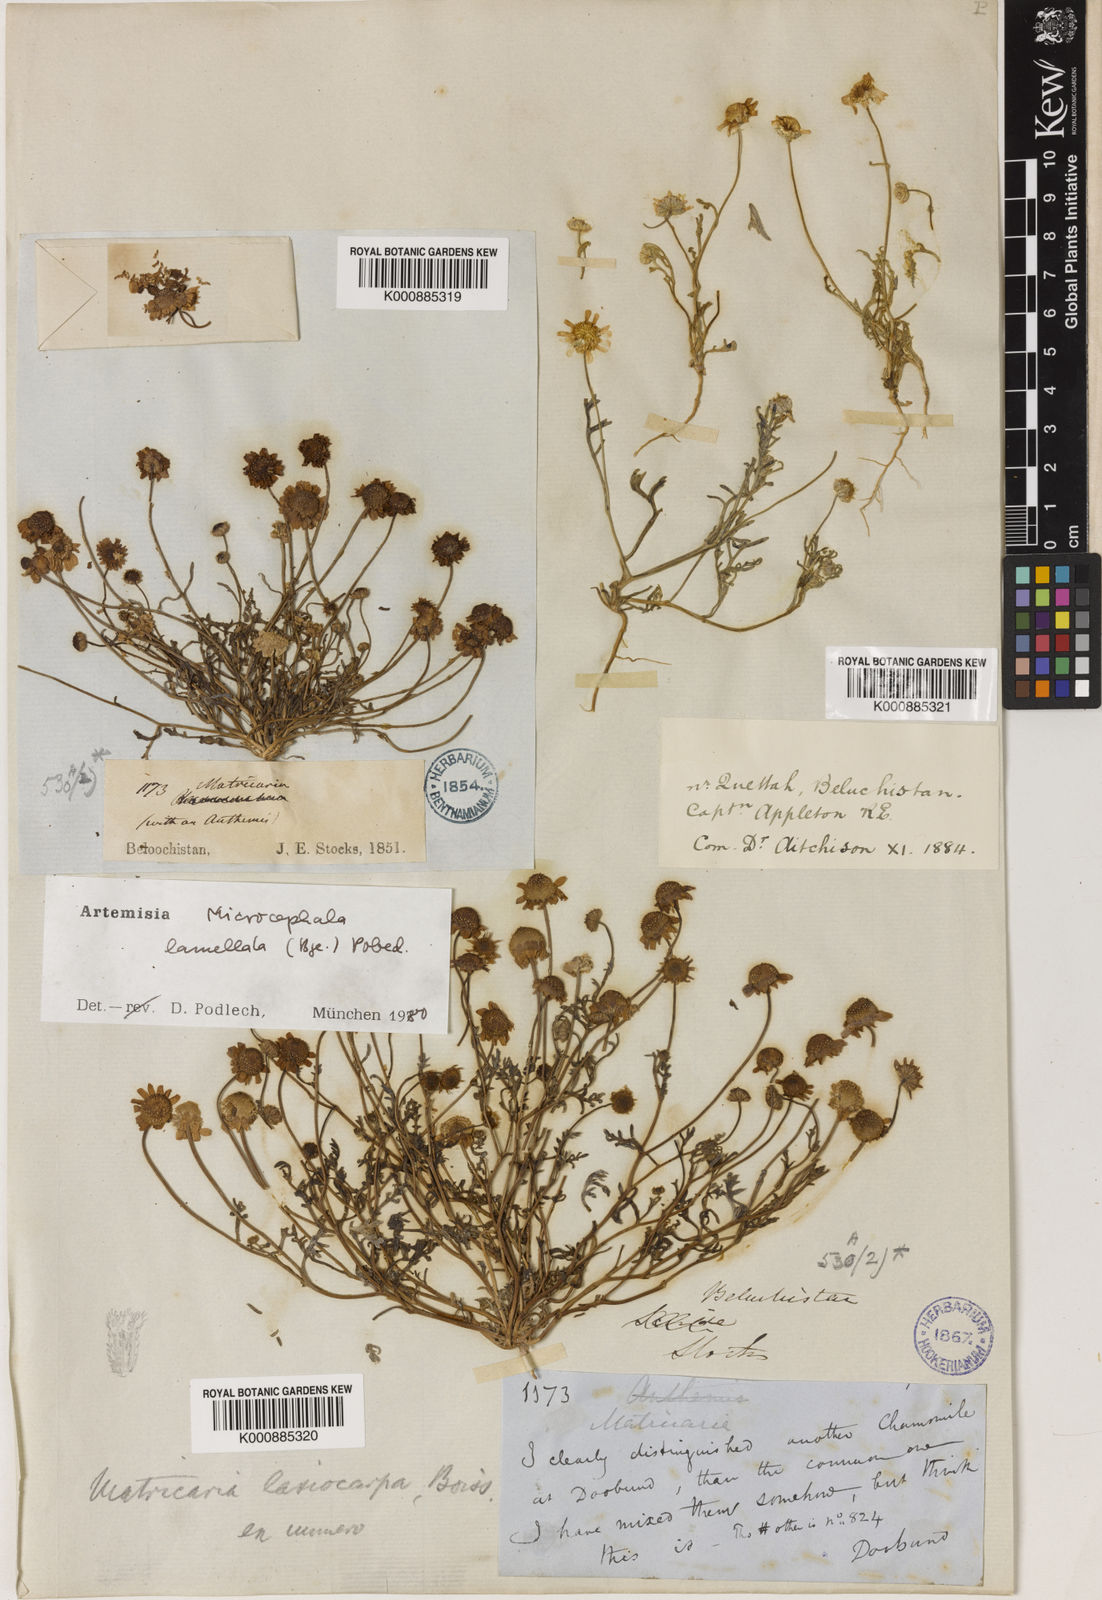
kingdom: Plantae
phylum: Tracheophyta
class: Magnoliopsida
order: Asterales
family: Asteraceae
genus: Microcephala
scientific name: Microcephala lamellata
